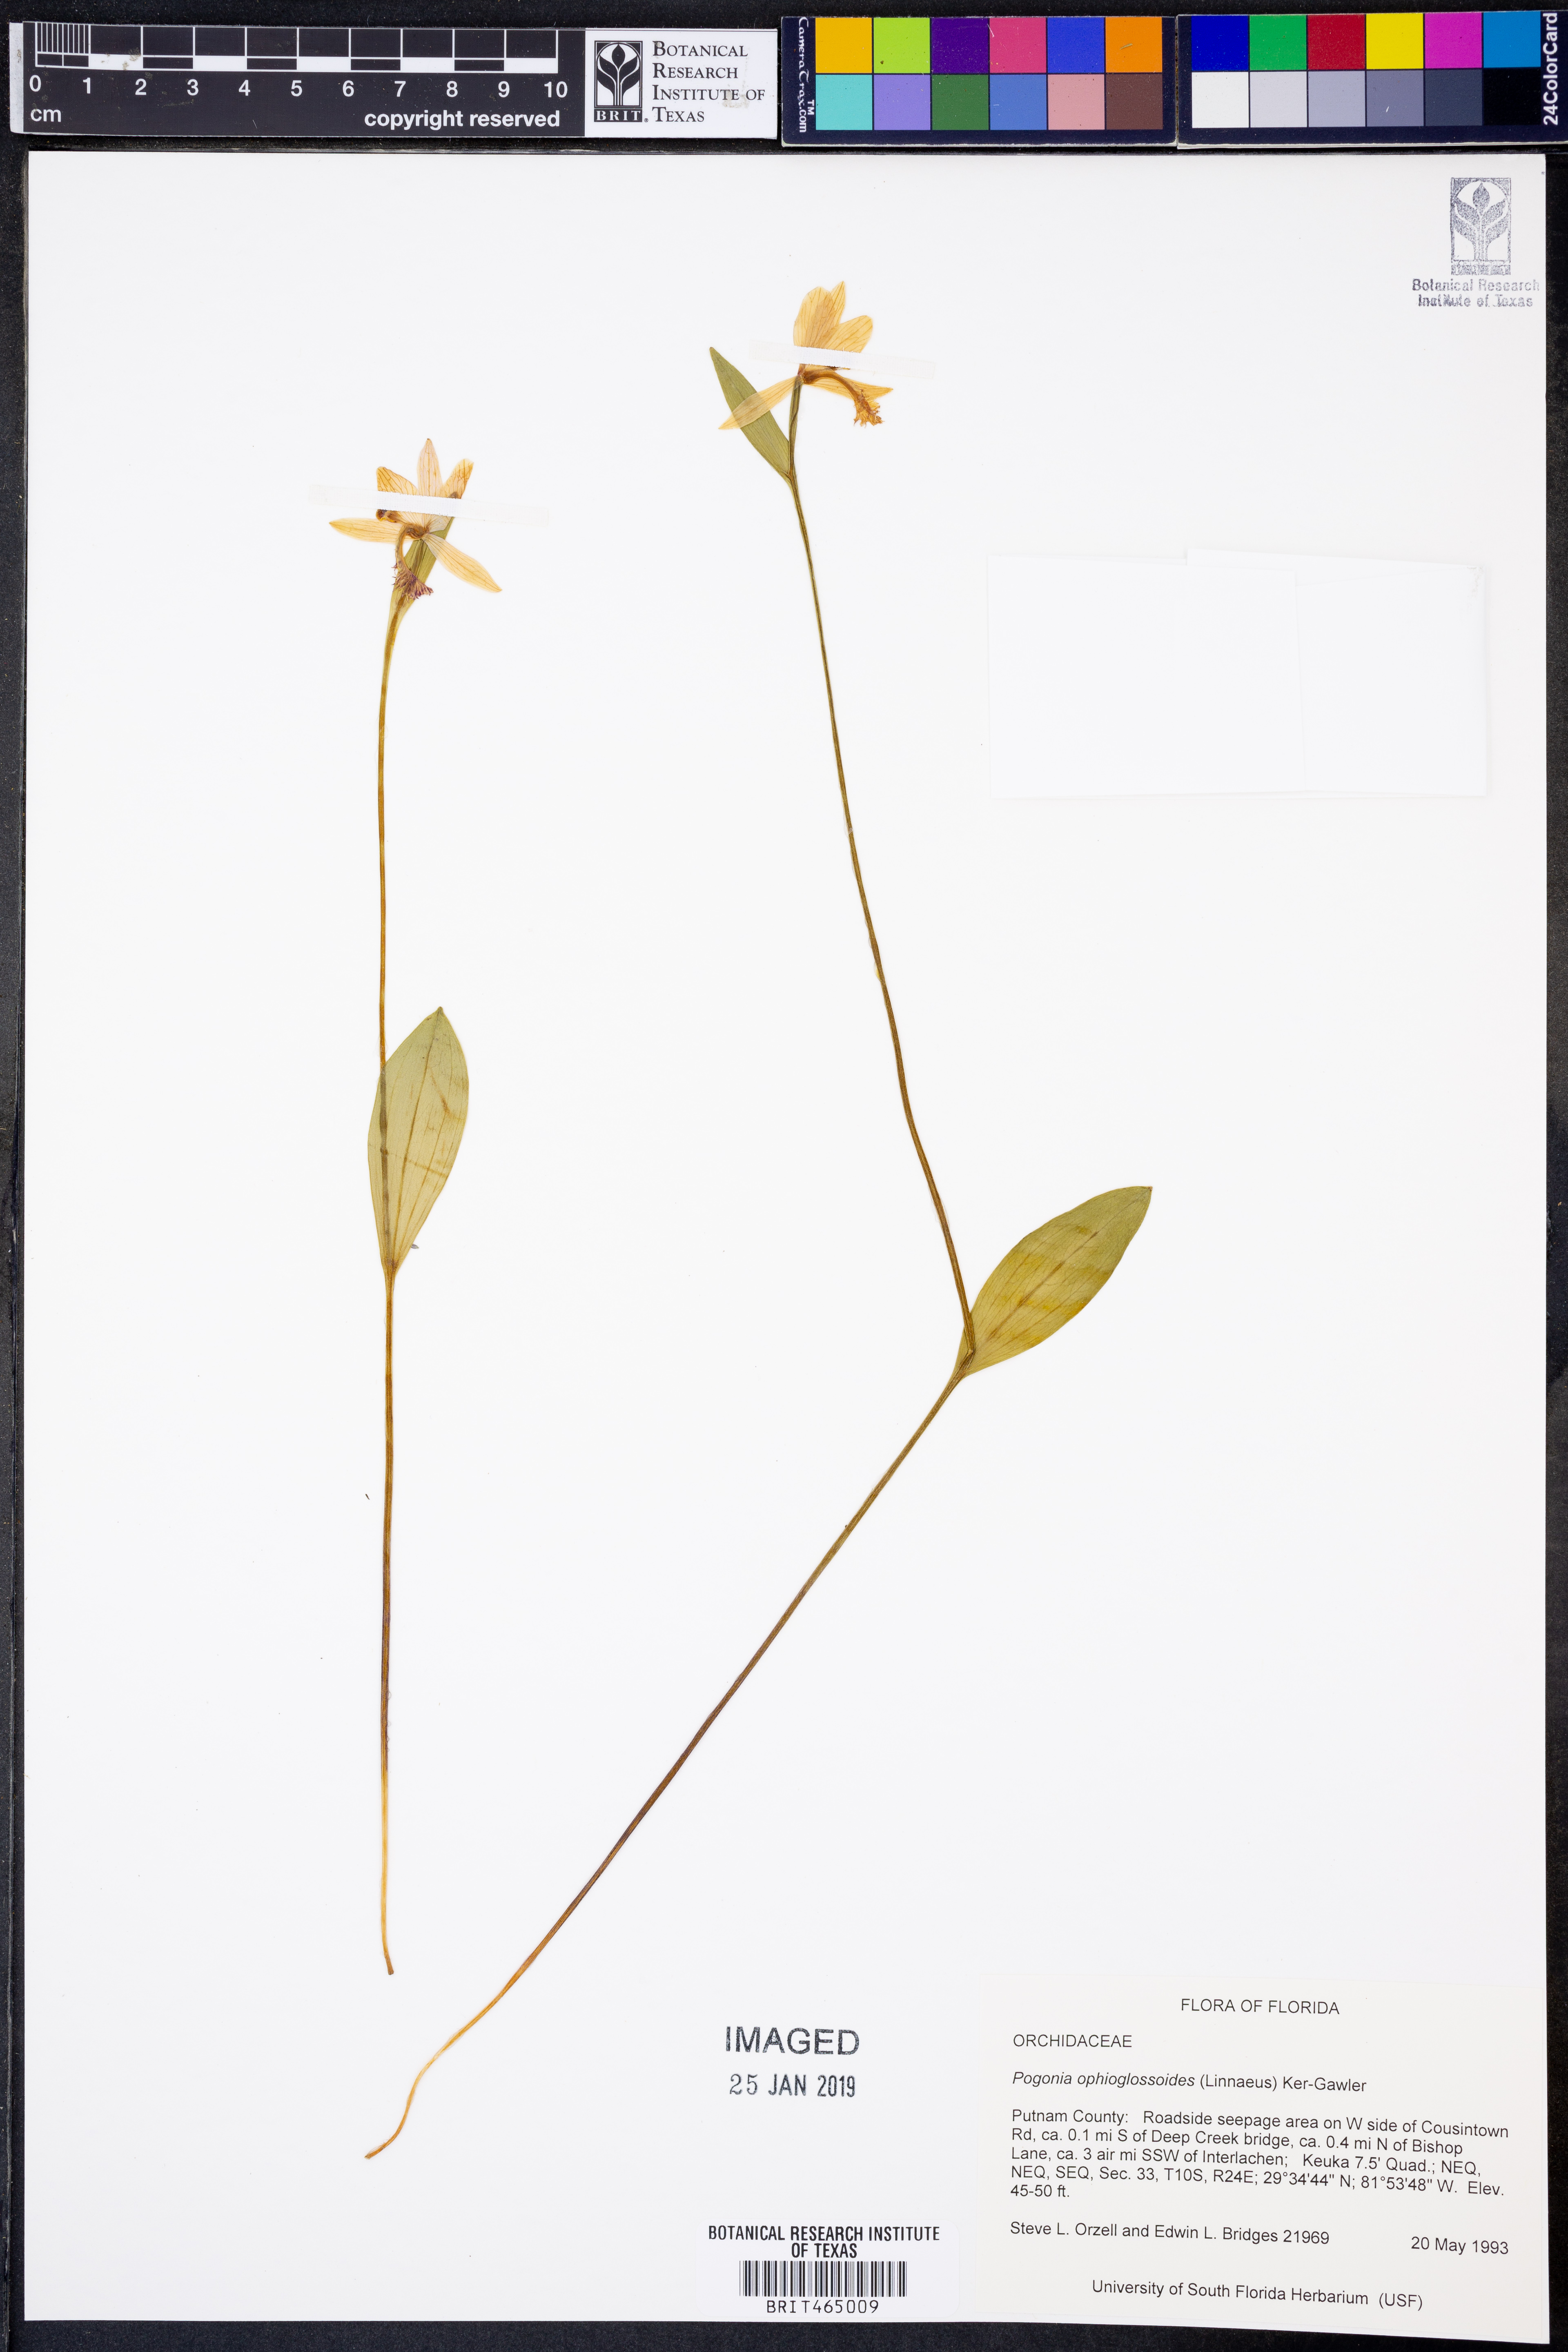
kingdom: Plantae
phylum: Tracheophyta
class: Liliopsida
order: Asparagales
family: Orchidaceae
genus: Pogonia
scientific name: Pogonia ophioglossoides
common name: Rose pogonia
